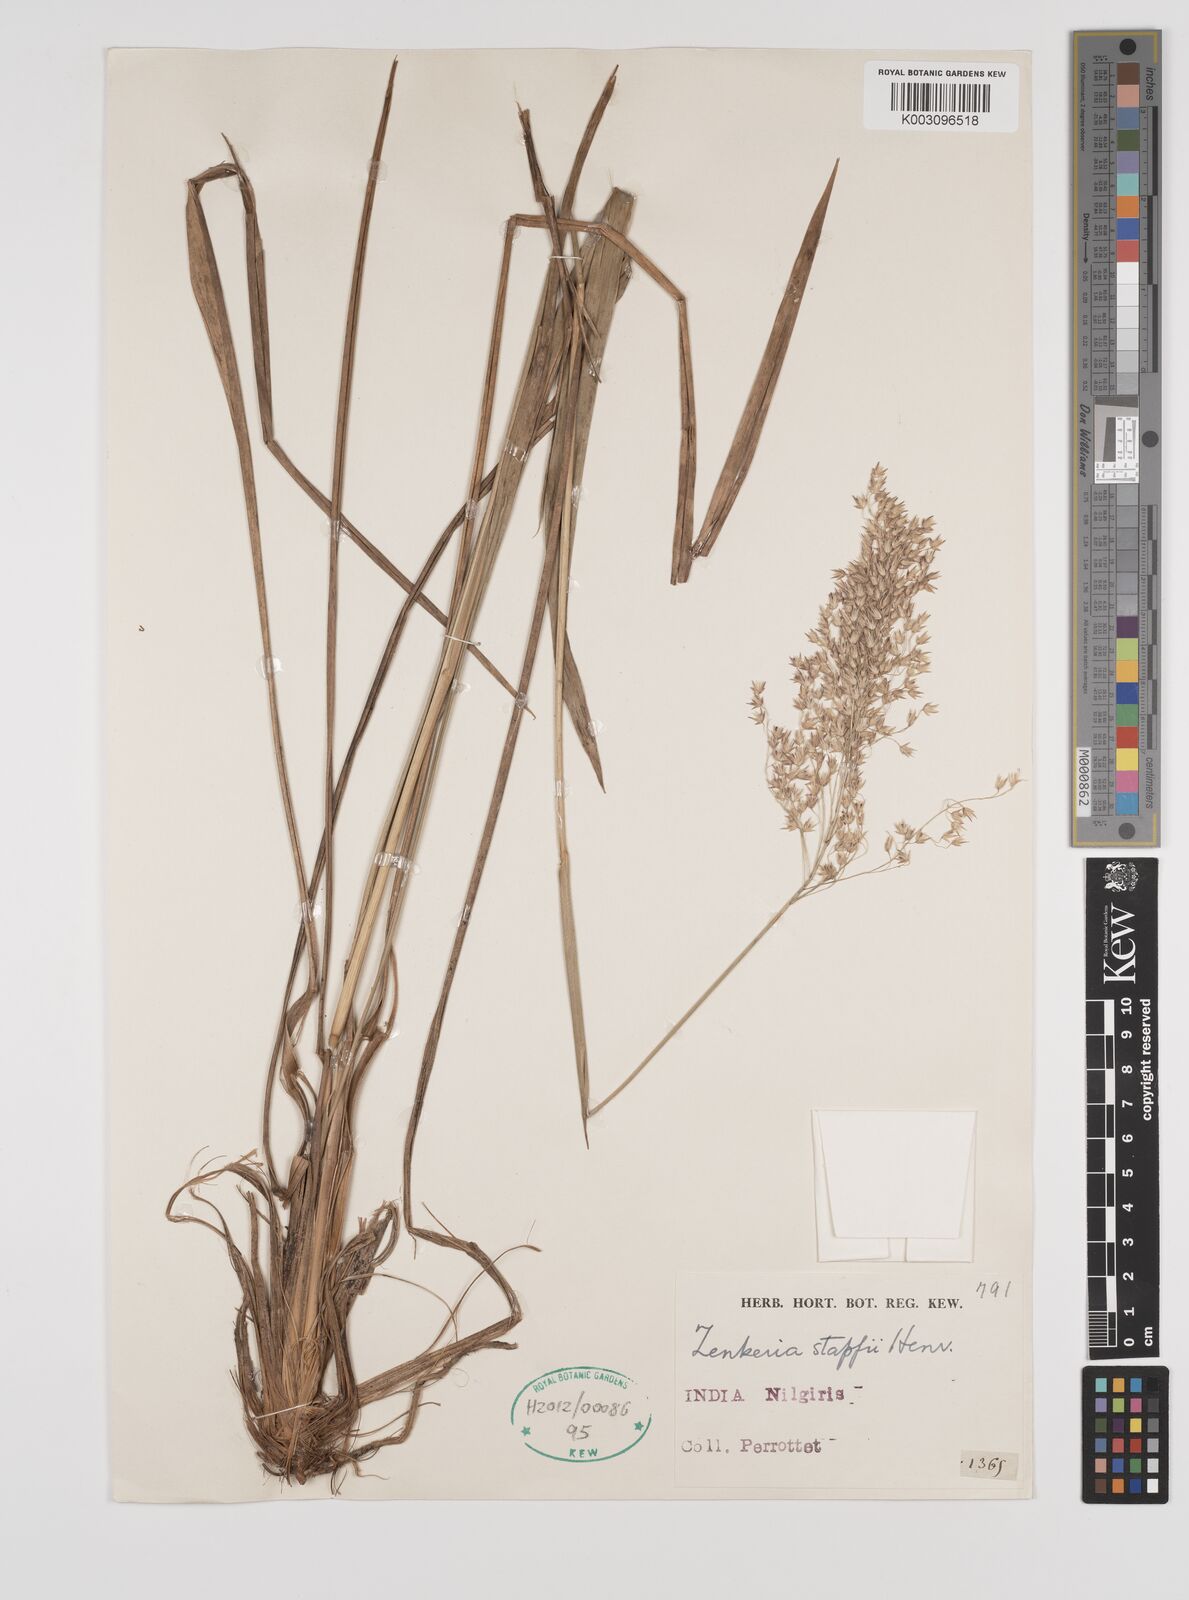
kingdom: Plantae
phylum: Tracheophyta
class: Liliopsida
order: Poales
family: Poaceae
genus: Zenkeria
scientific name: Zenkeria stapfii
